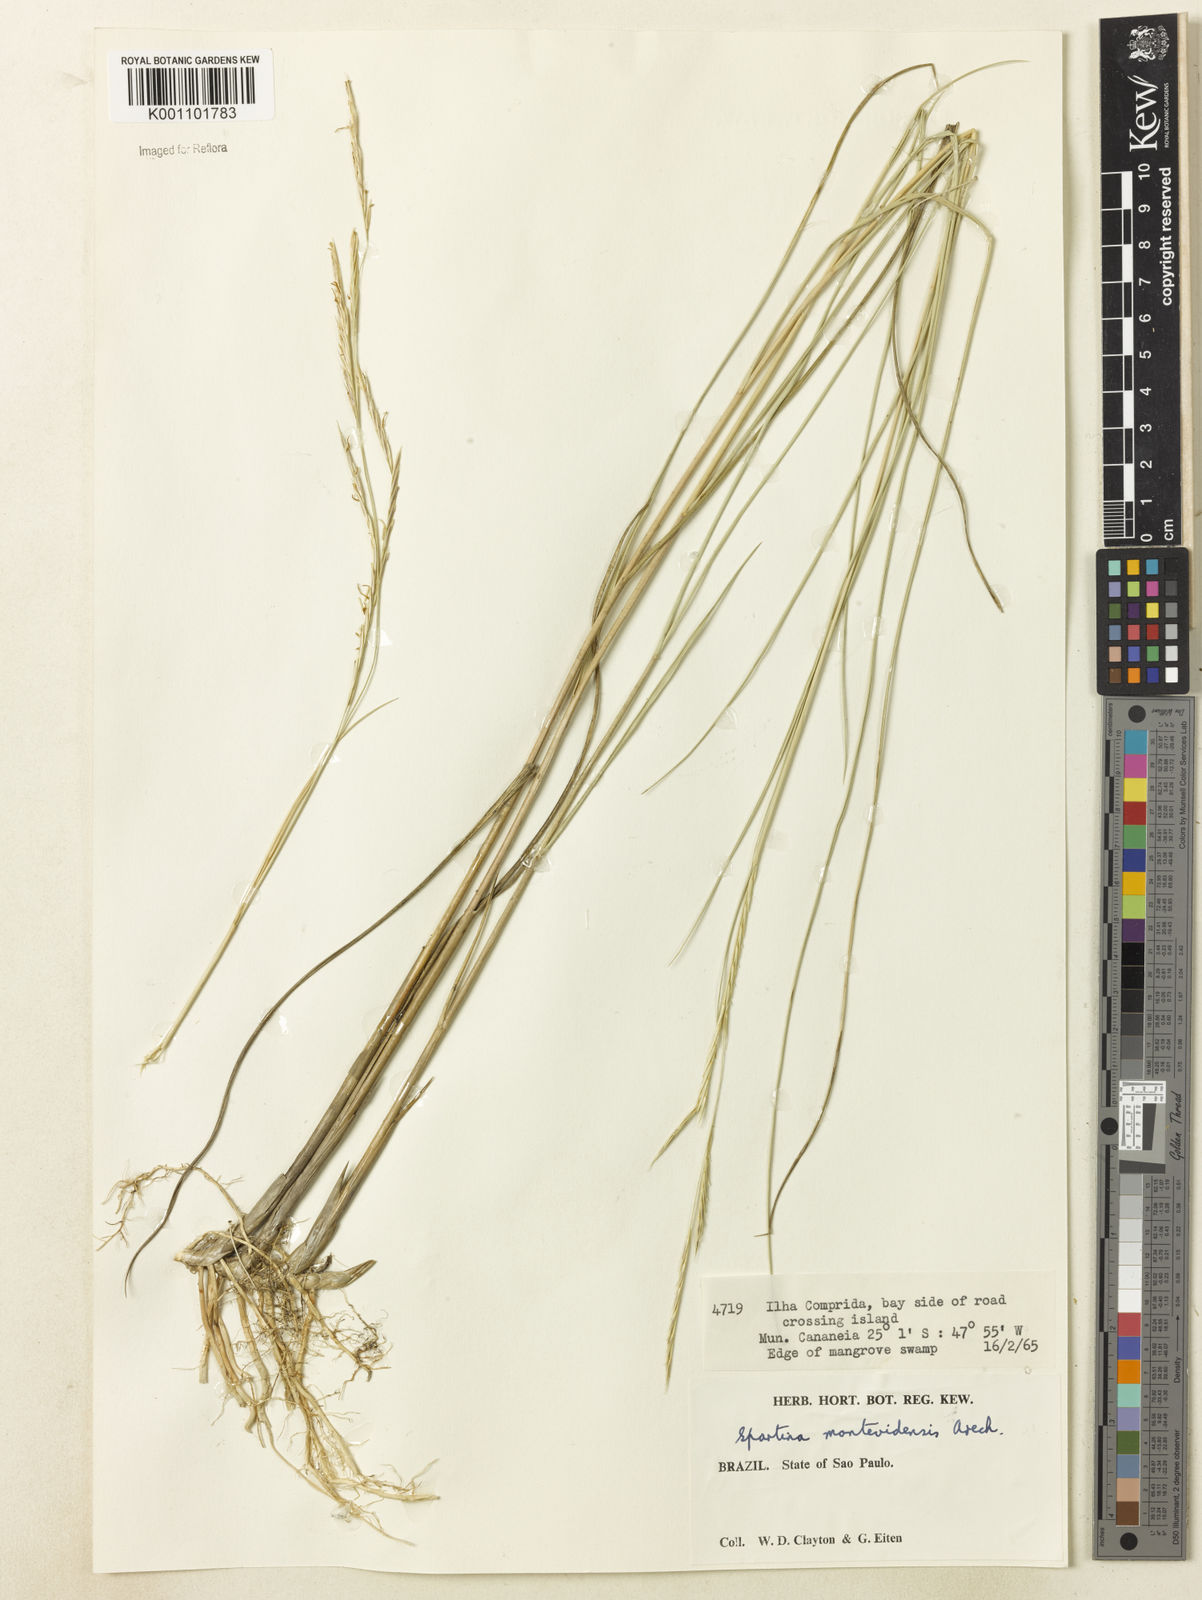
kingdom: Plantae
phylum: Tracheophyta
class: Liliopsida
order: Poales
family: Poaceae
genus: Sporobolus
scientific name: Sporobolus montevidensis
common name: Montevideo dropseed
